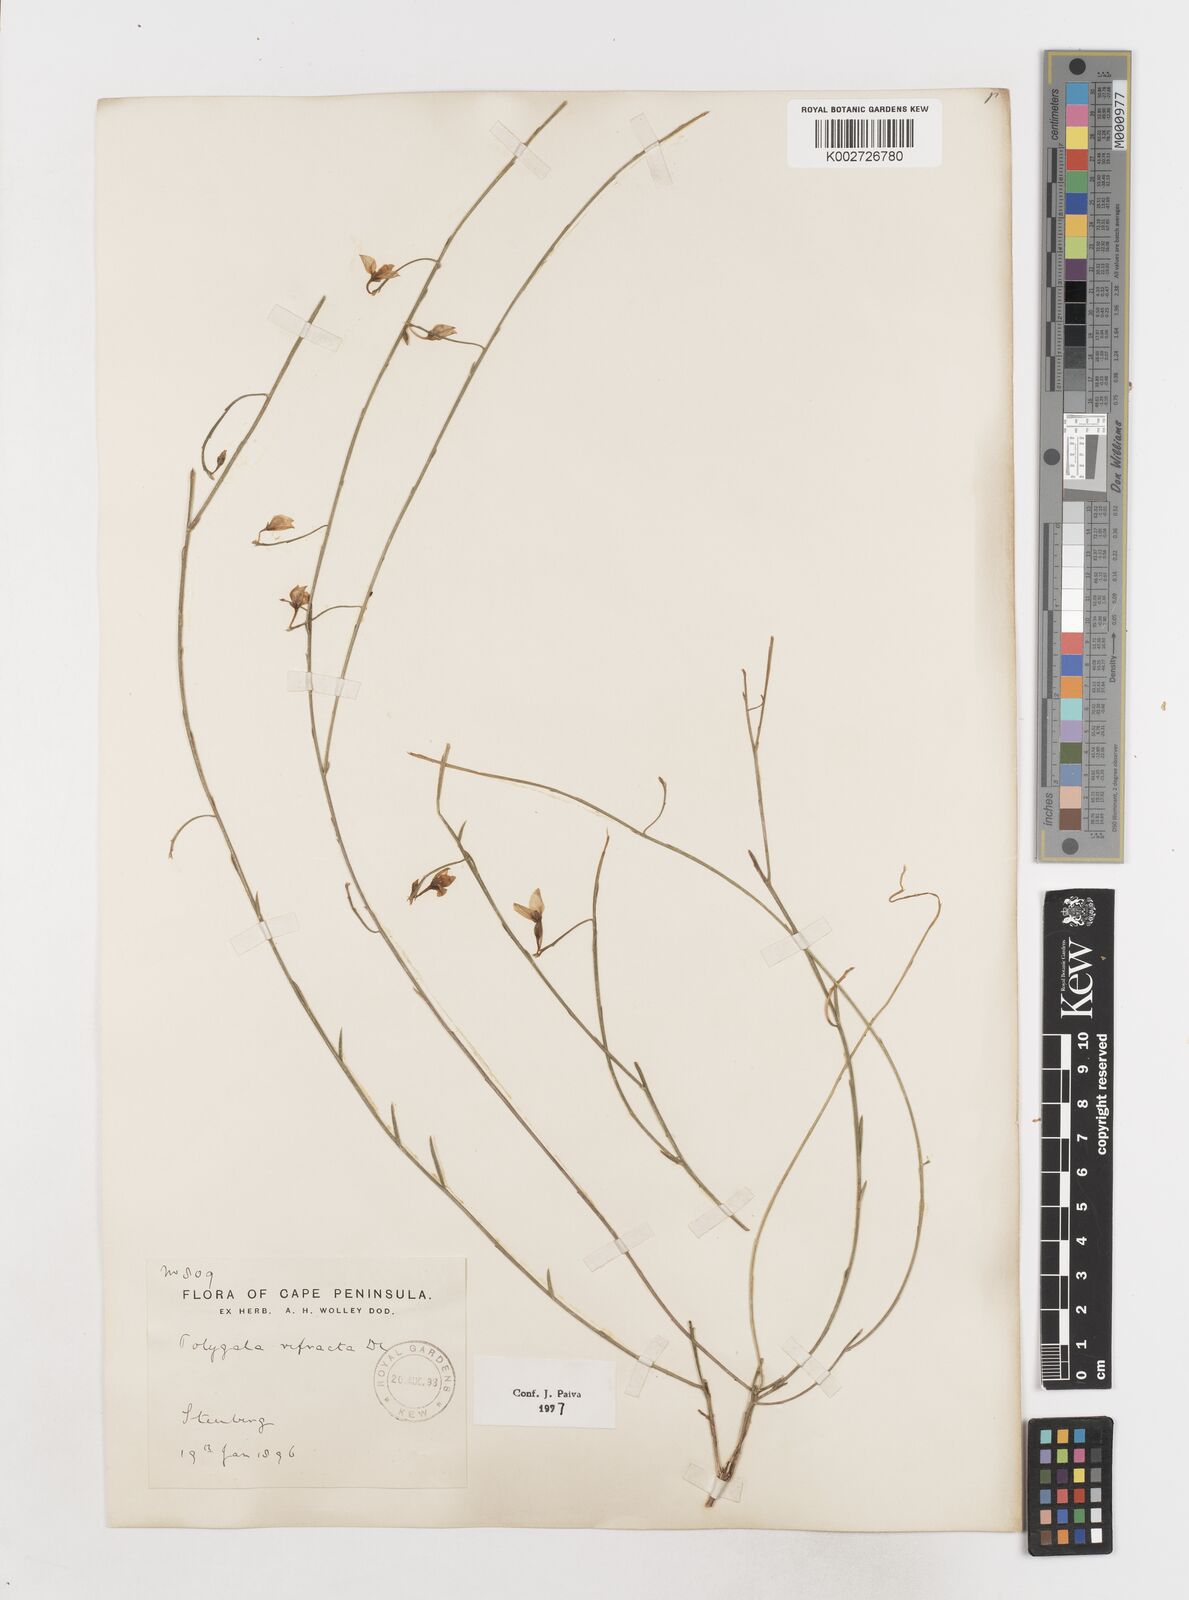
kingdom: Plantae
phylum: Tracheophyta
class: Magnoliopsida
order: Fabales
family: Polygalaceae
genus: Polygala
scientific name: Polygala refracta
